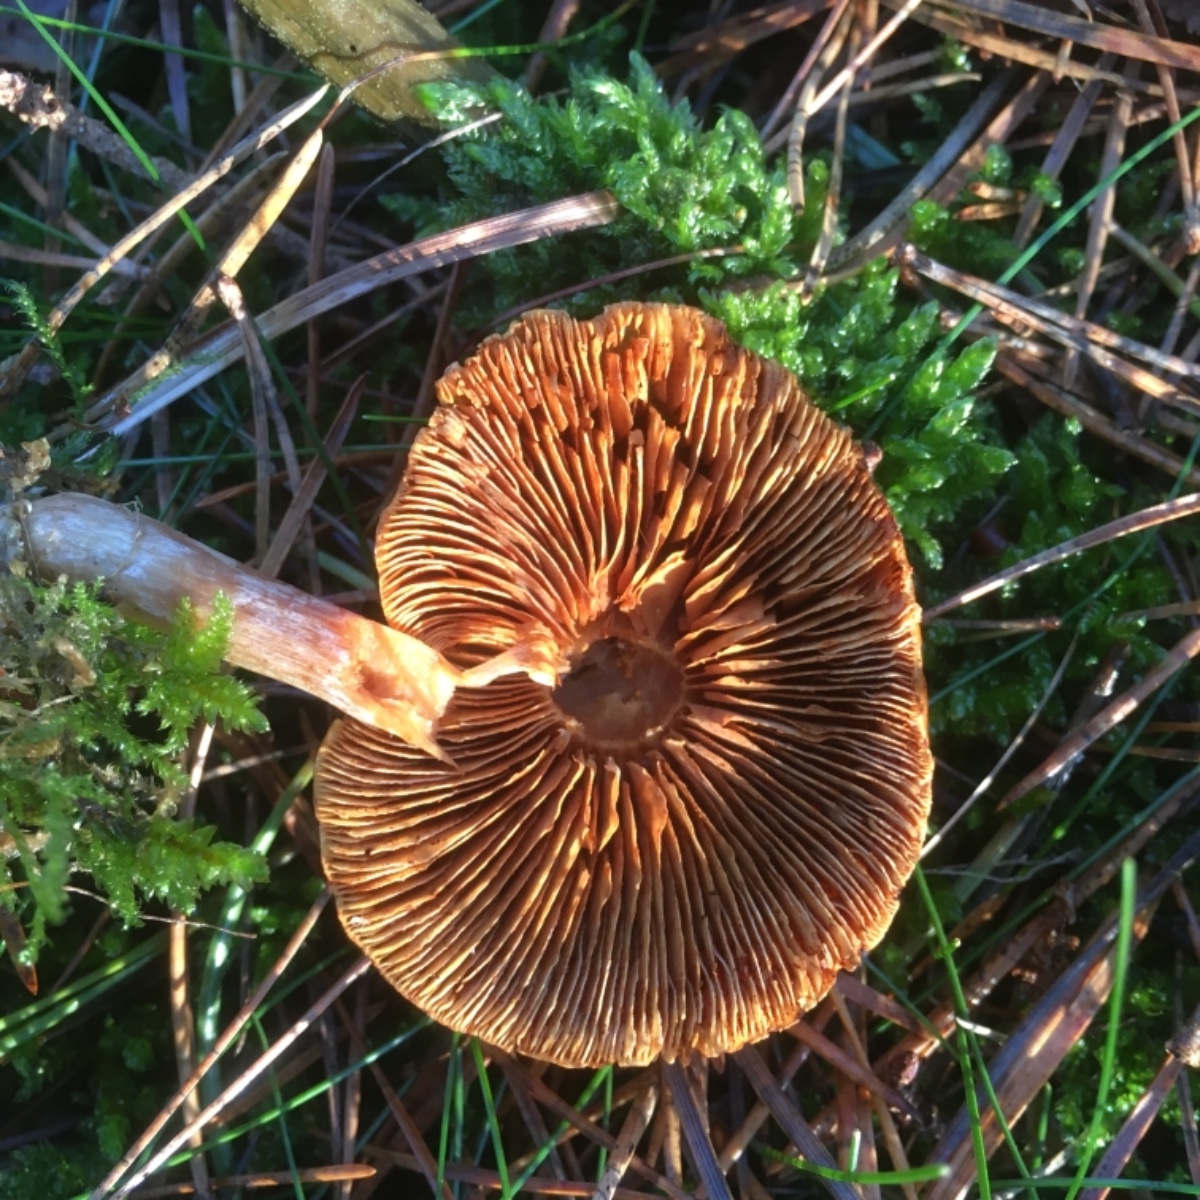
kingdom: Fungi
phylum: Basidiomycota
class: Agaricomycetes
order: Agaricales
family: Hymenogastraceae
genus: Gymnopilus
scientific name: Gymnopilus penetrans
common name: plettet flammehat
